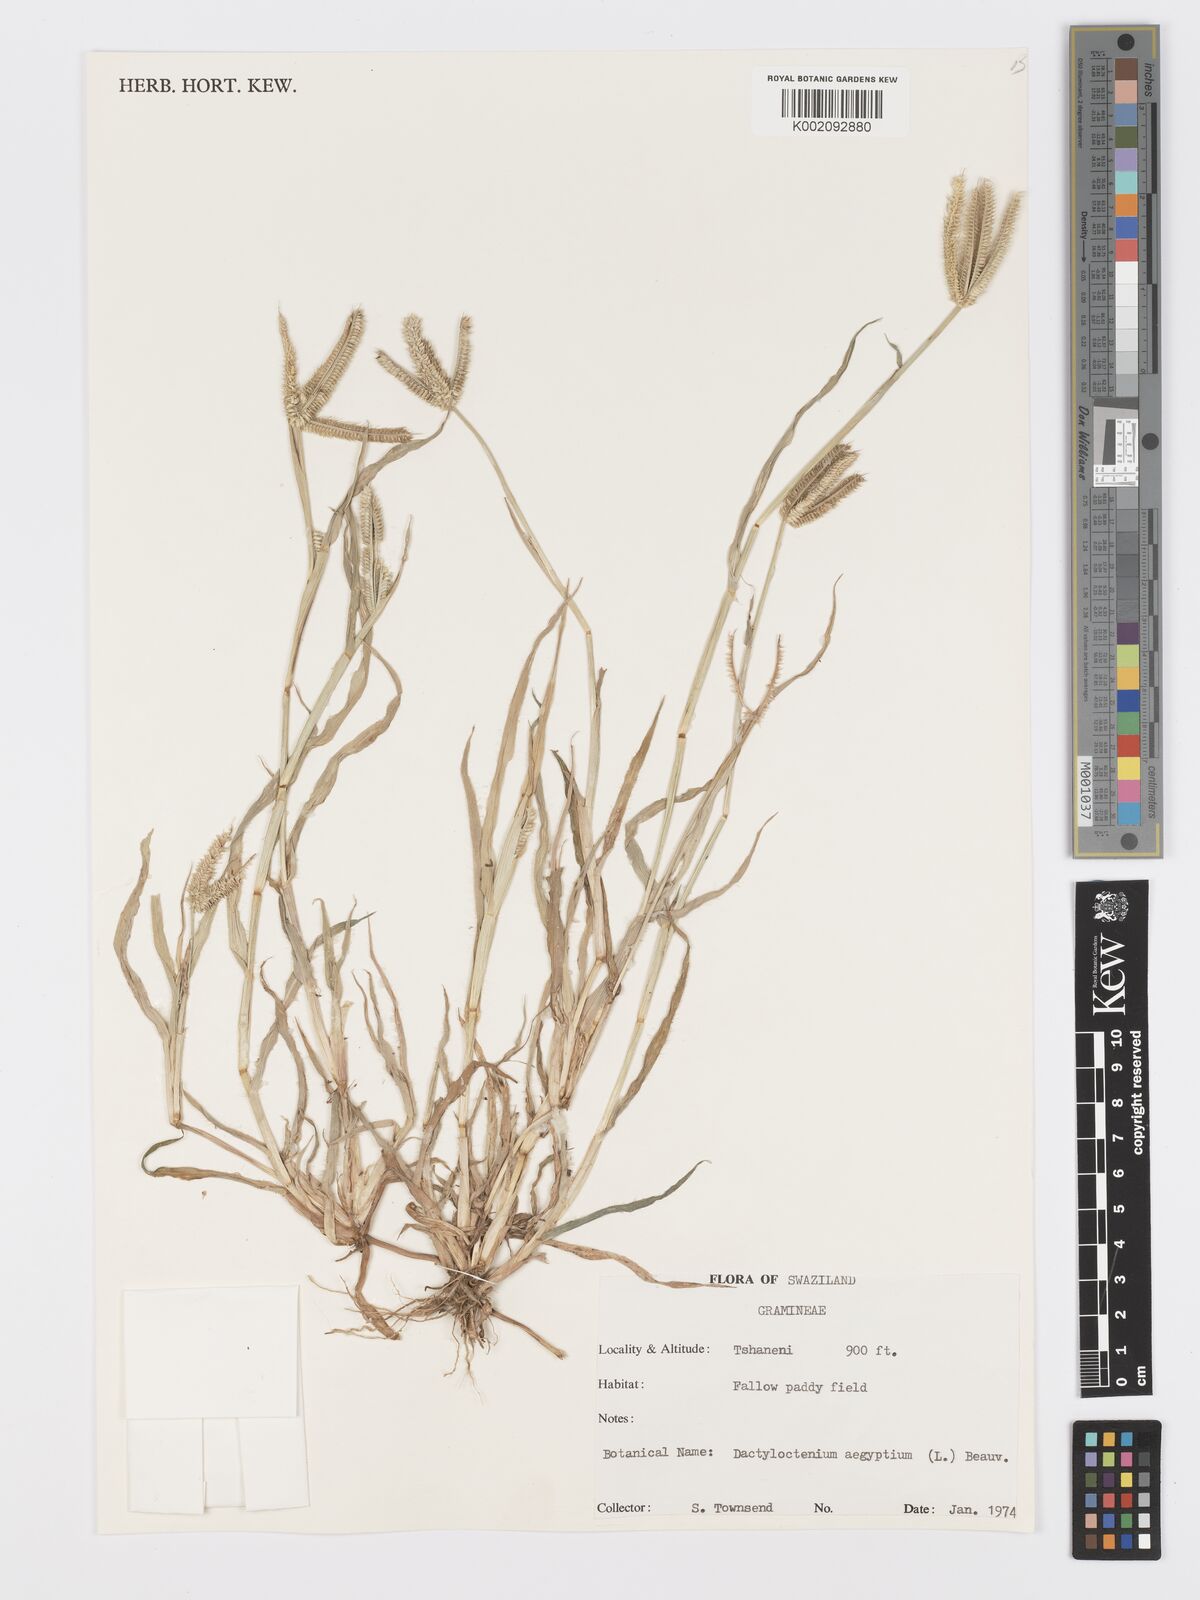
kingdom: Plantae
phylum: Tracheophyta
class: Liliopsida
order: Poales
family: Poaceae
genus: Dactyloctenium
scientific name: Dactyloctenium aegyptium
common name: Egyptian grass
